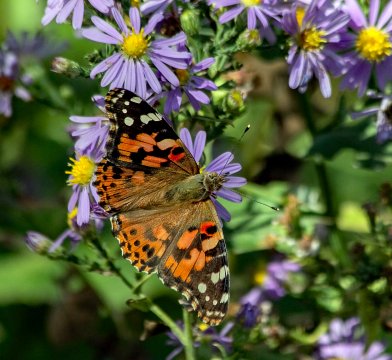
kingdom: Animalia
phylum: Arthropoda
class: Insecta
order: Lepidoptera
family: Nymphalidae
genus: Vanessa
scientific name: Vanessa cardui
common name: Painted Lady
